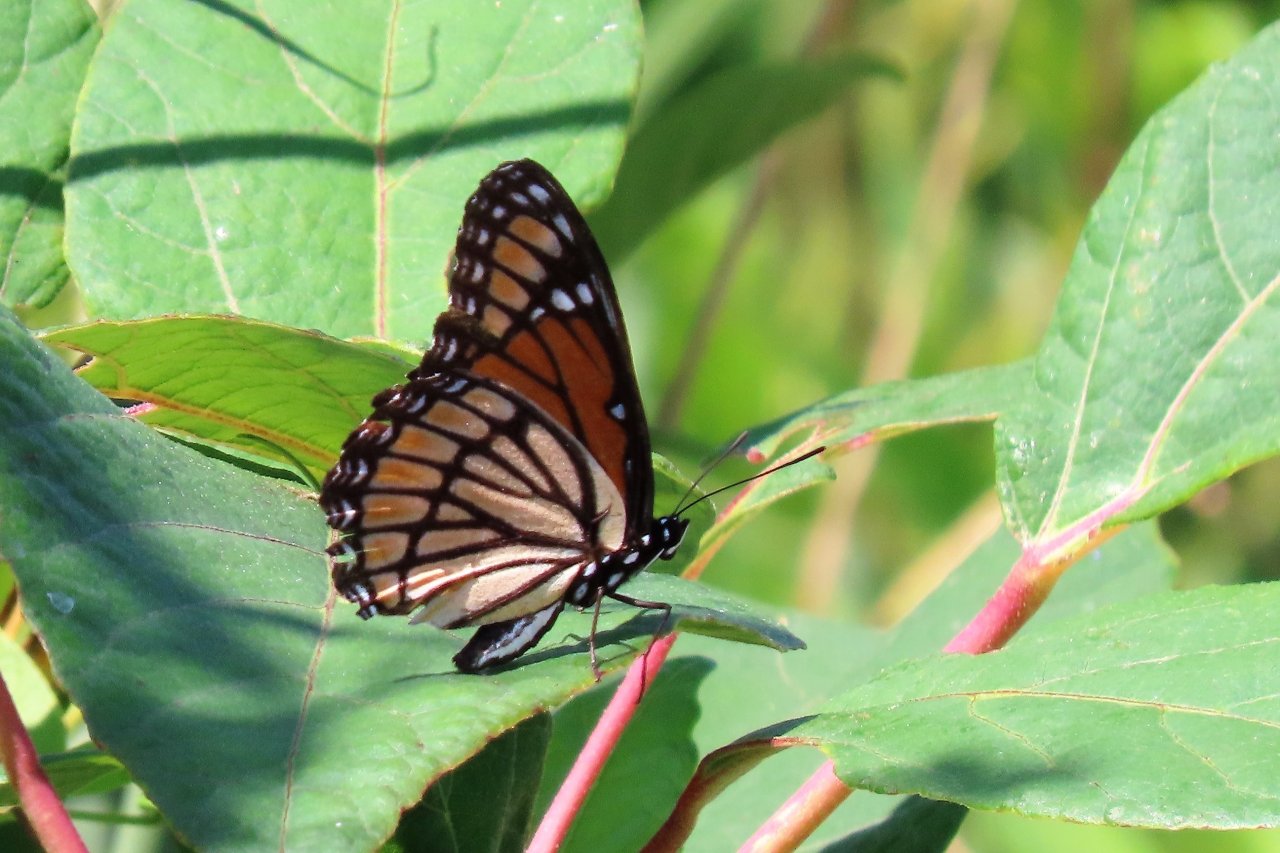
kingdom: Animalia
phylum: Arthropoda
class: Insecta
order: Lepidoptera
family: Nymphalidae
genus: Limenitis
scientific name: Limenitis archippus
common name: Viceroy
